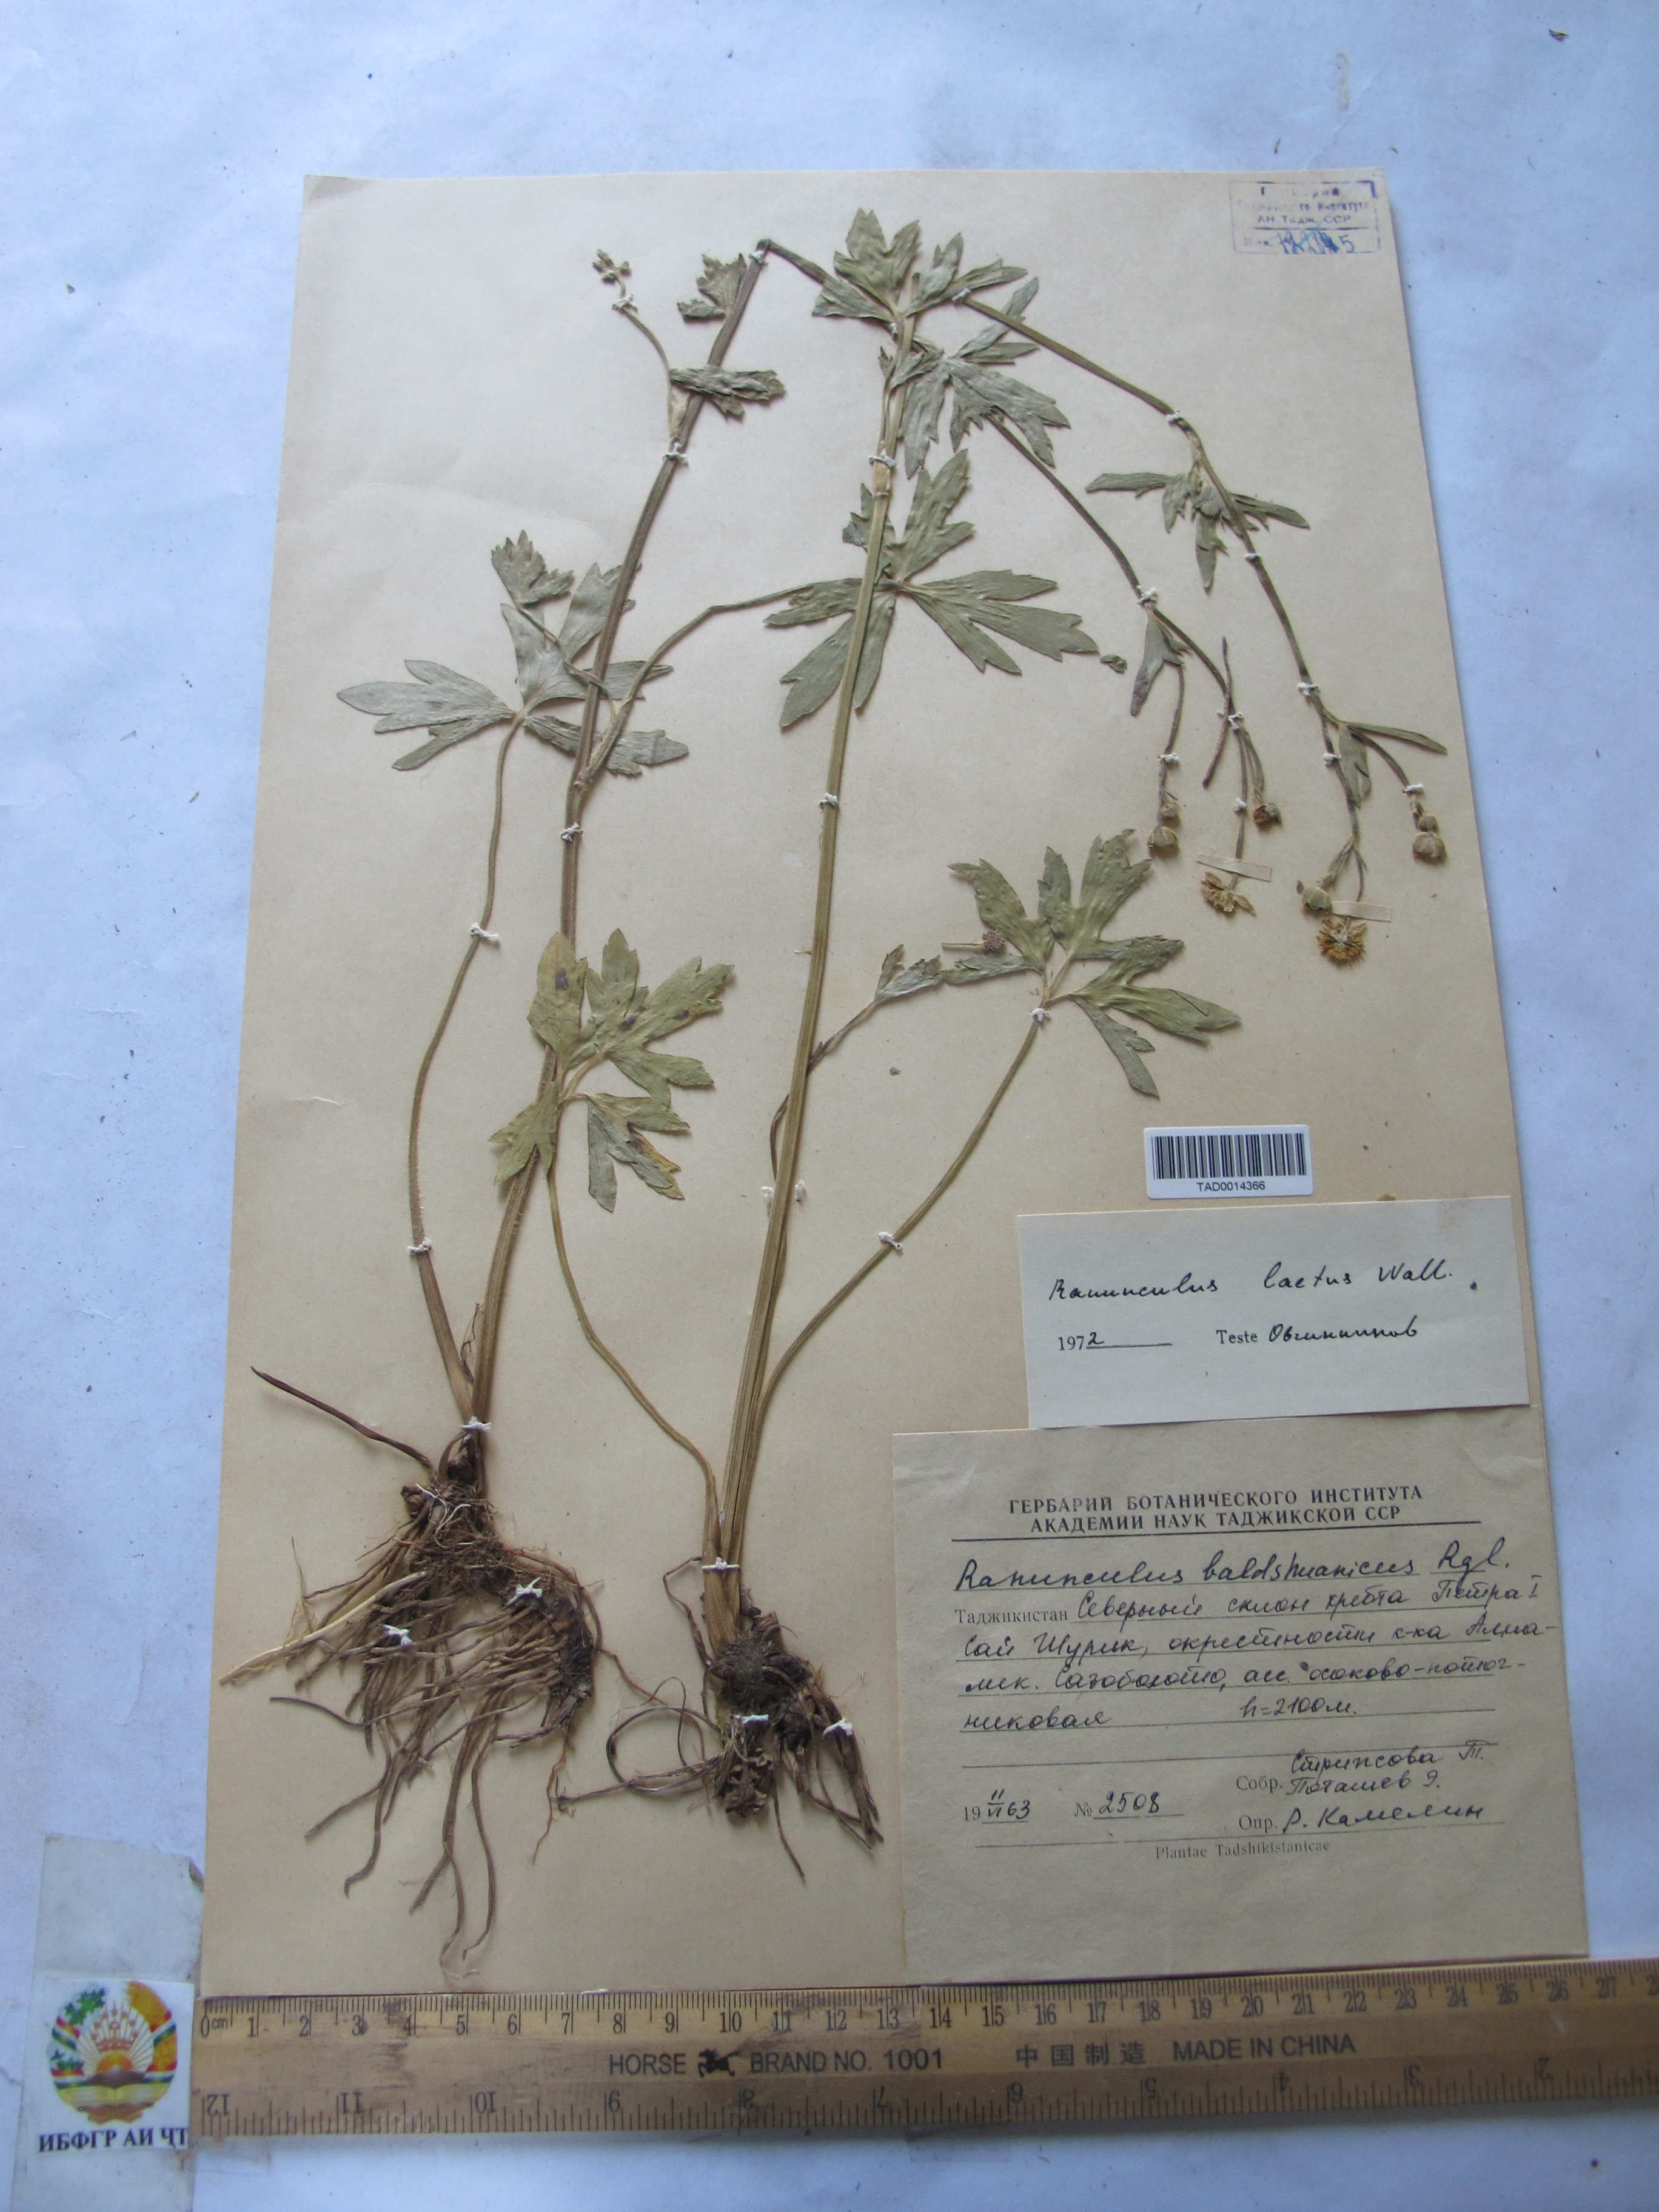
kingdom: Plantae
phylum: Tracheophyta
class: Magnoliopsida
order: Ranunculales
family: Ranunculaceae
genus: Ranunculus
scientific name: Ranunculus distans
